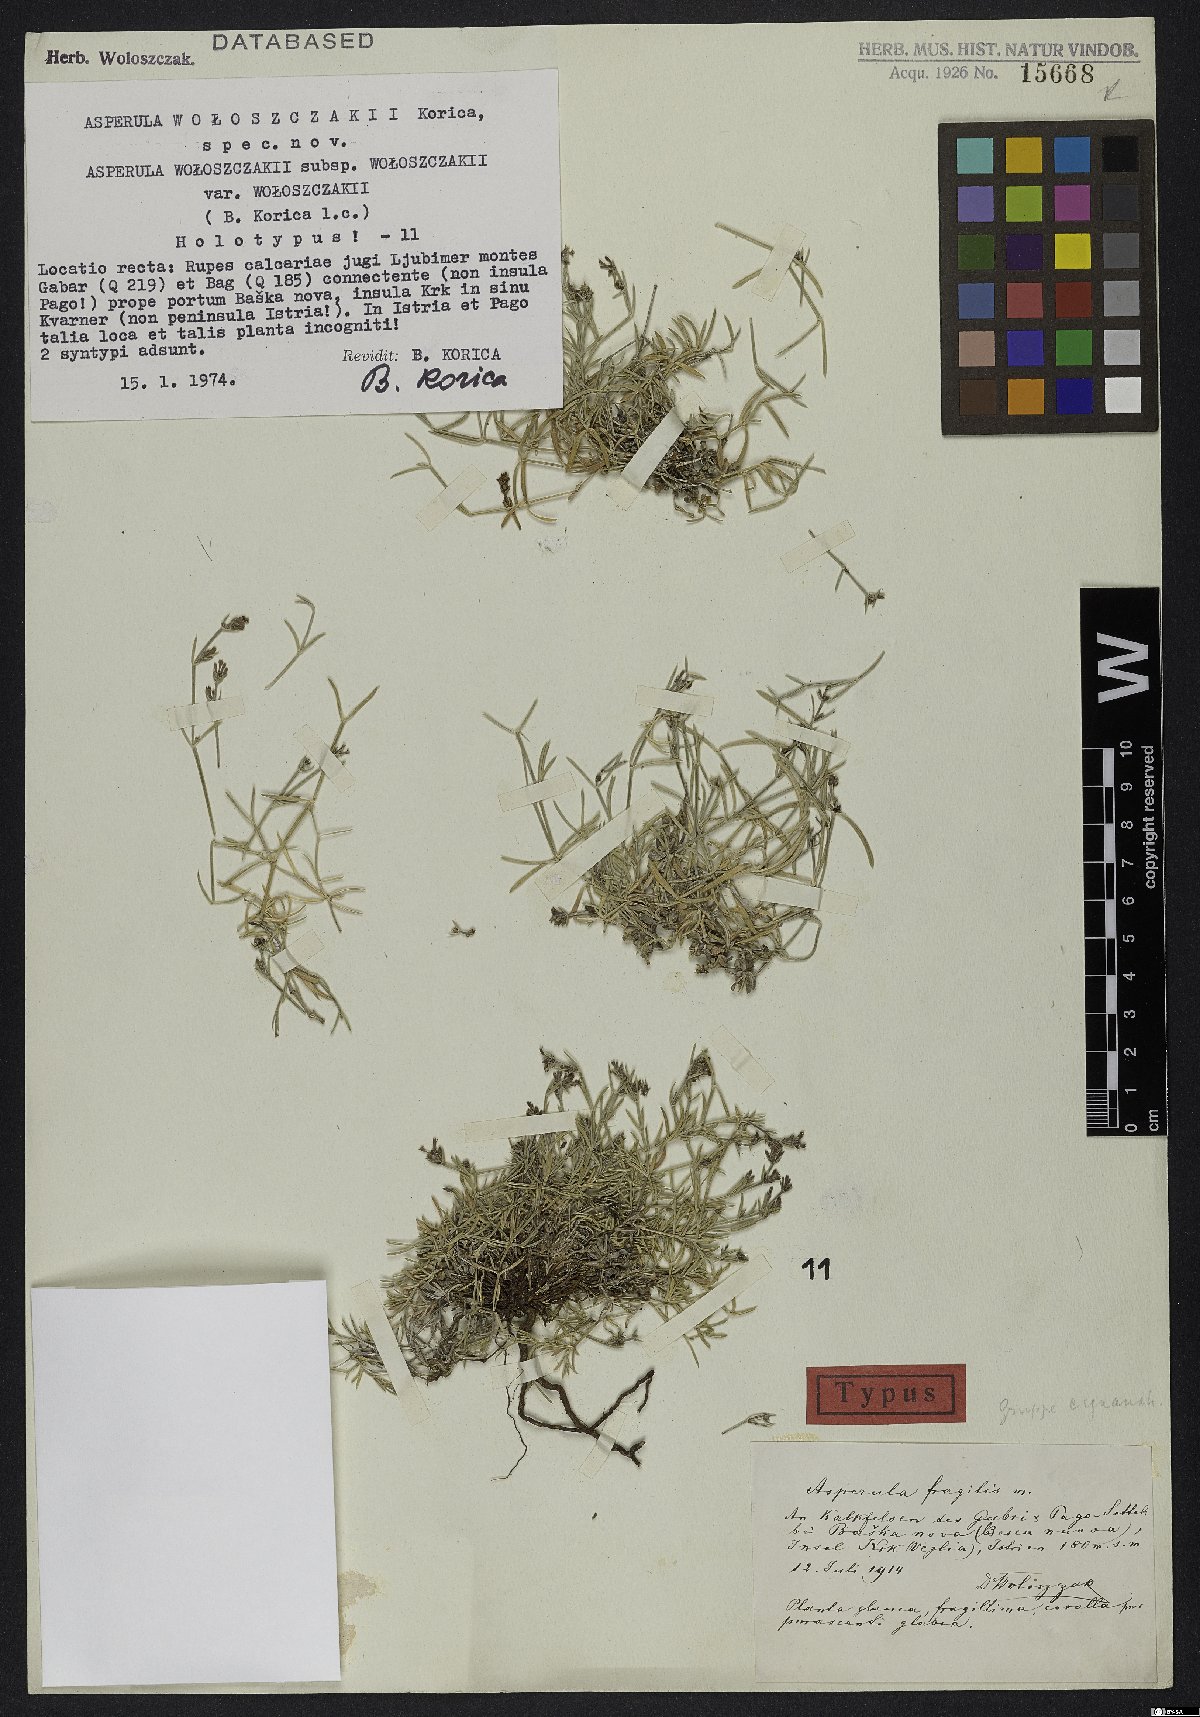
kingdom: Plantae
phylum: Tracheophyta
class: Magnoliopsida
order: Gentianales
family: Rubiaceae
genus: Cynanchica
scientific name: Cynanchica woloszczakii
